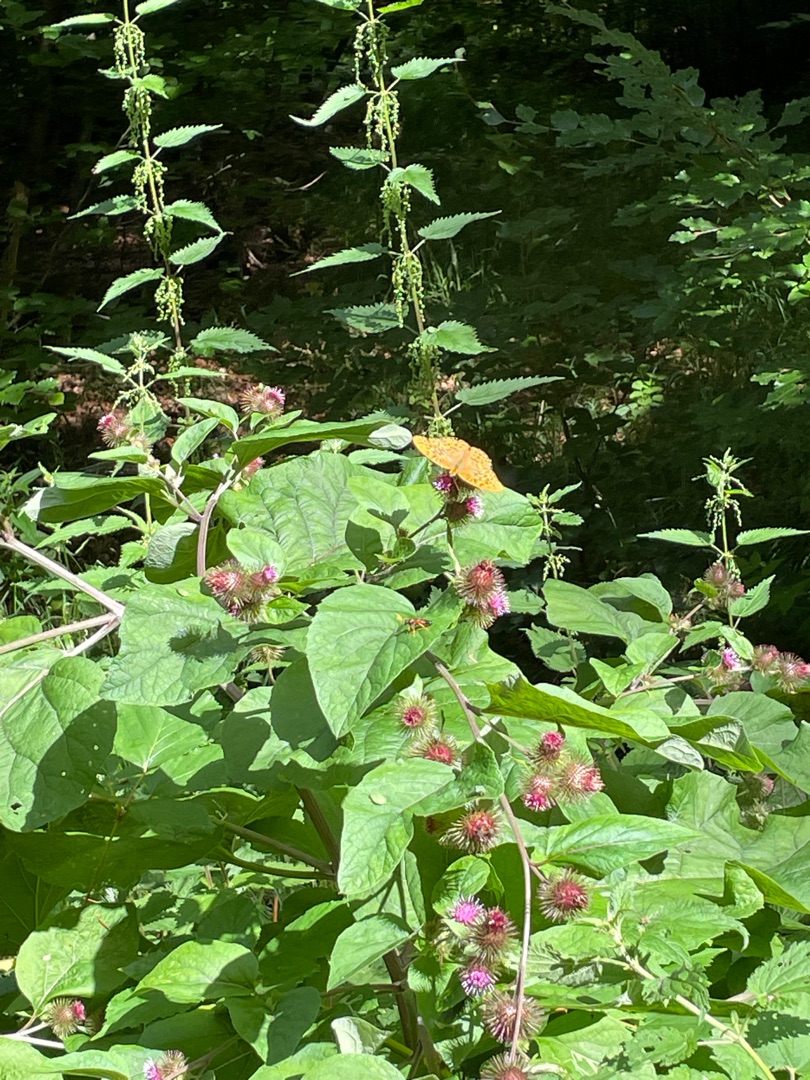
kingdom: Animalia
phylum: Arthropoda
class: Insecta
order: Lepidoptera
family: Nymphalidae
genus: Argynnis
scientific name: Argynnis paphia
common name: Kejserkåbe
